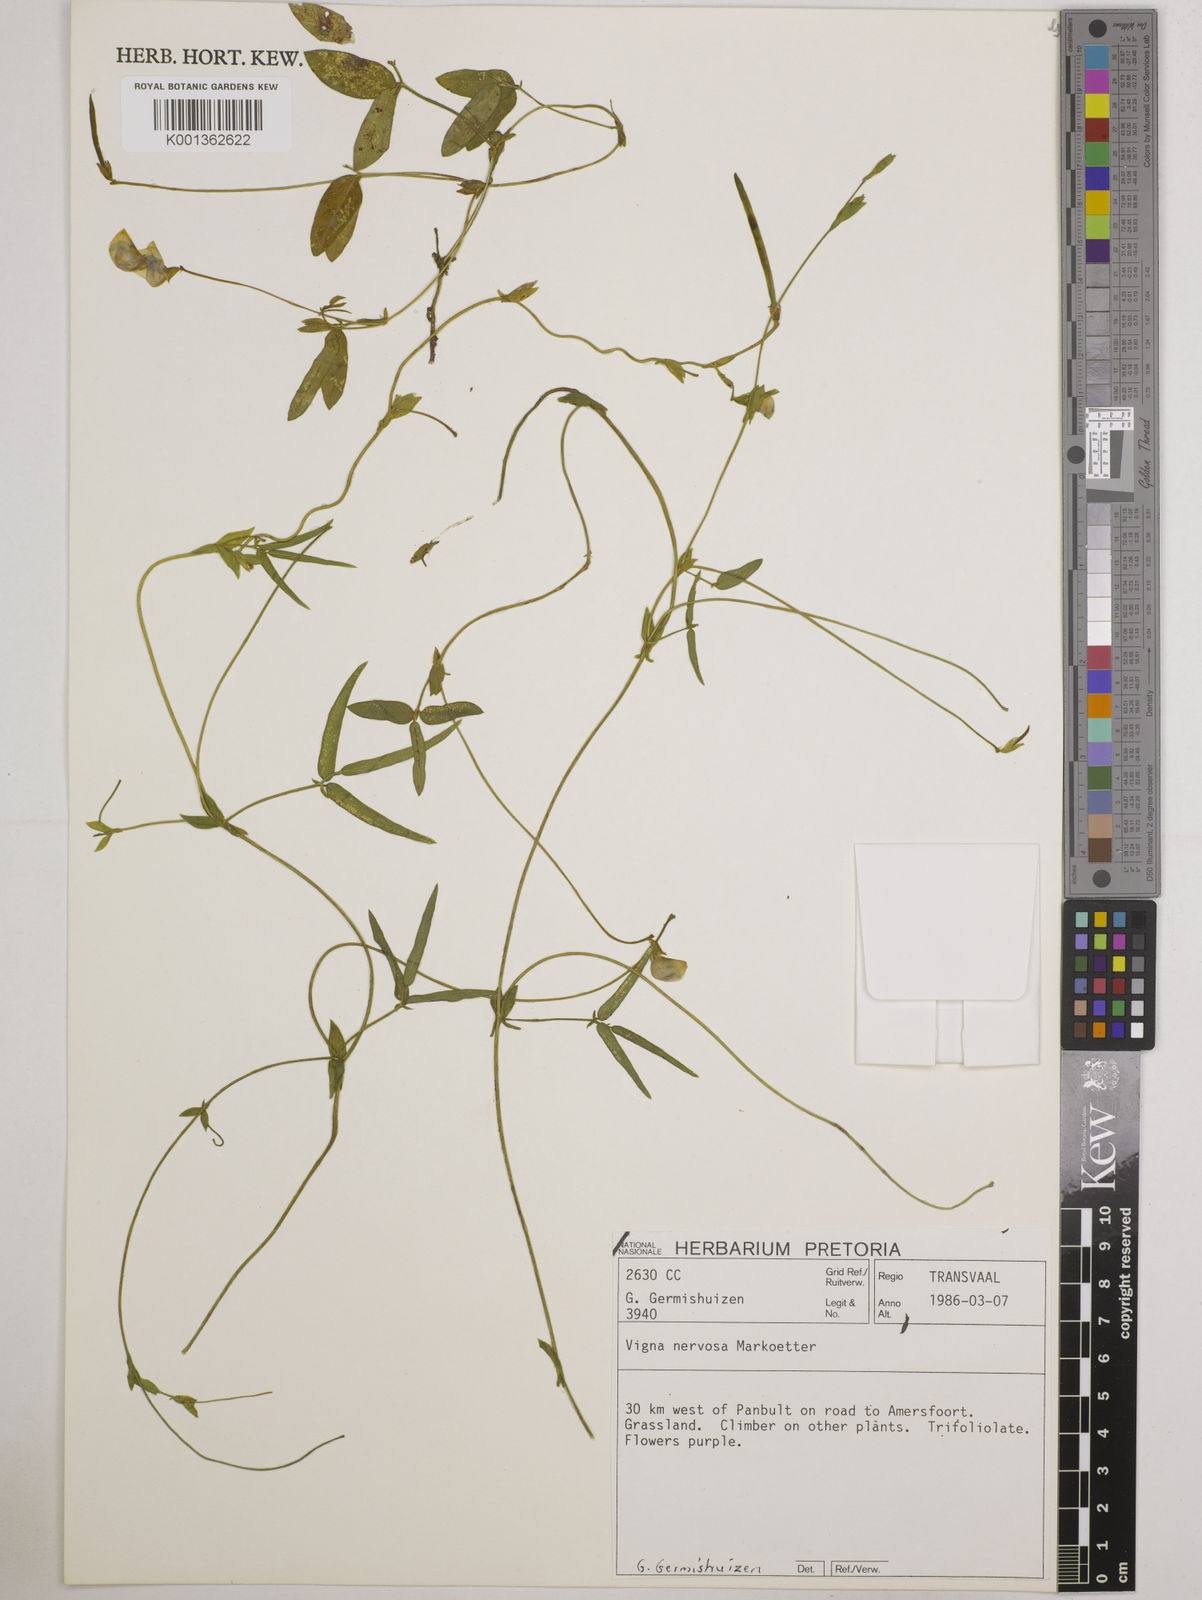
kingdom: Plantae
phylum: Tracheophyta
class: Magnoliopsida
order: Fabales
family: Fabaceae
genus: Vigna
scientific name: Vigna nervosa
